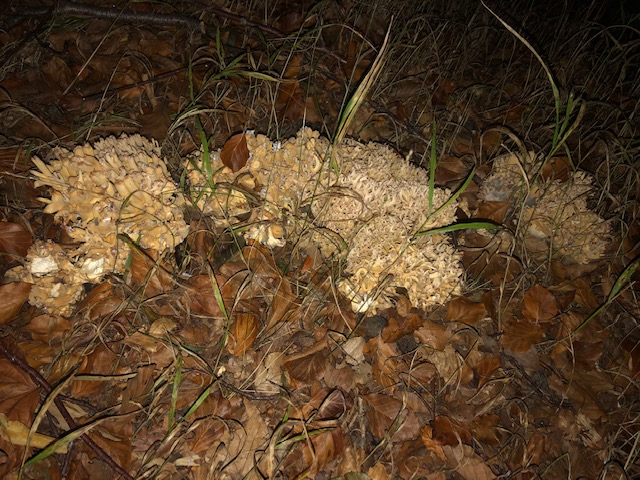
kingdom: Fungi
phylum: Basidiomycota
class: Agaricomycetes
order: Gomphales
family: Gomphaceae
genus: Ramaria
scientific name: Ramaria
